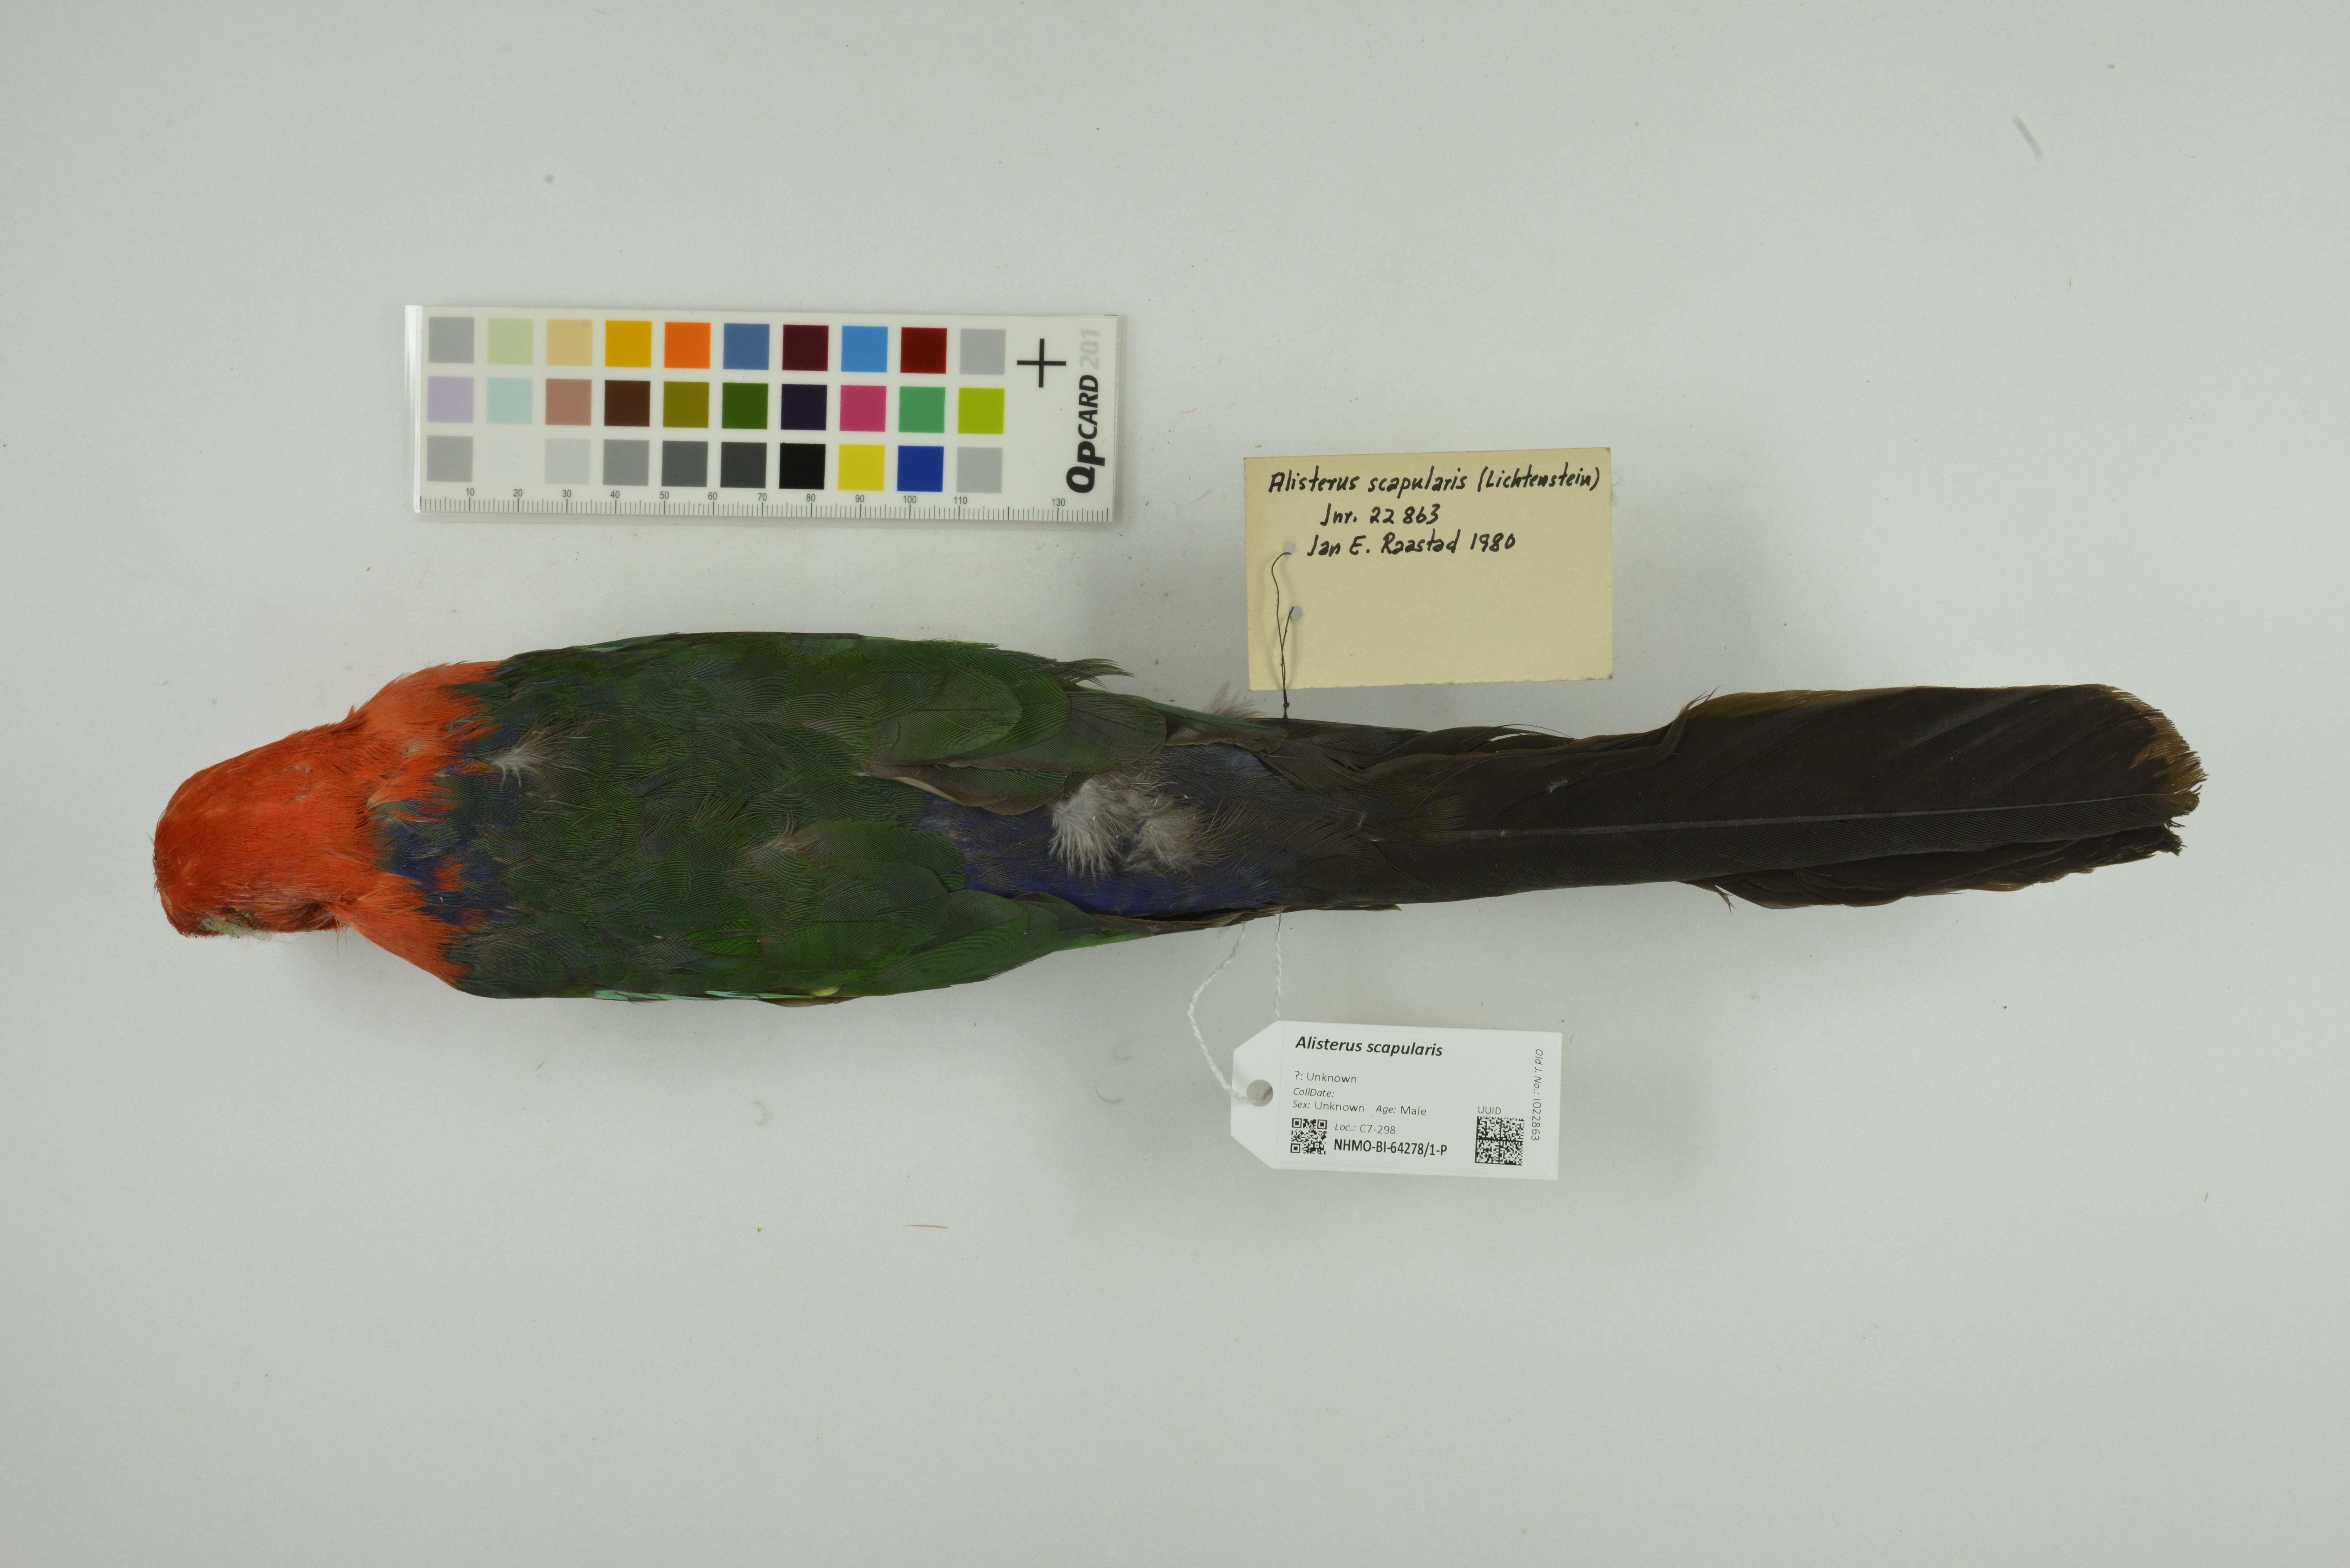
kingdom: Animalia
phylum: Chordata
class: Aves
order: Psittaciformes
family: Psittacidae
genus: Alisterus
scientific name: Alisterus scapularis
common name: Australian king parrot
